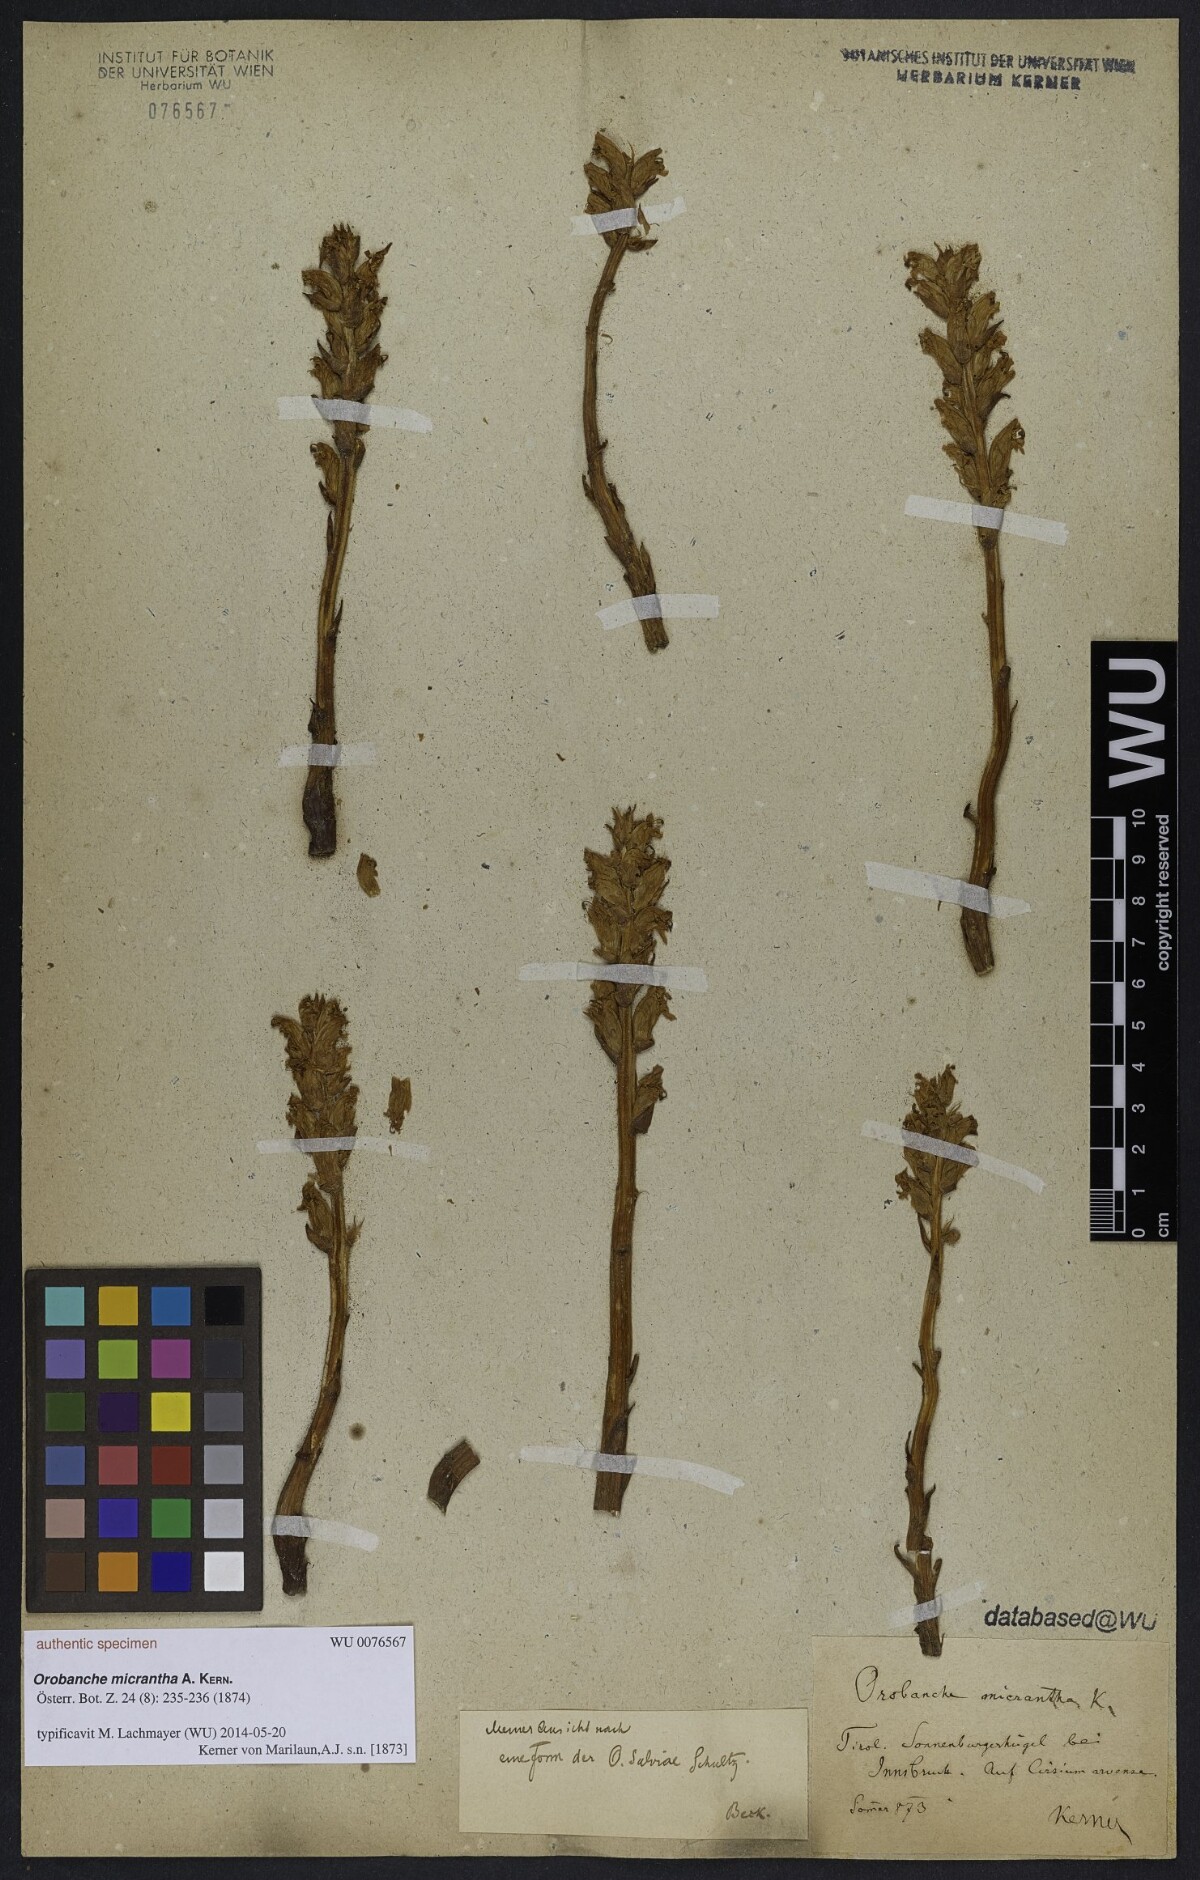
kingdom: Plantae
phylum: Tracheophyta
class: Magnoliopsida
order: Lamiales
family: Orobanchaceae
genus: Orobanche
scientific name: Orobanche salviae
